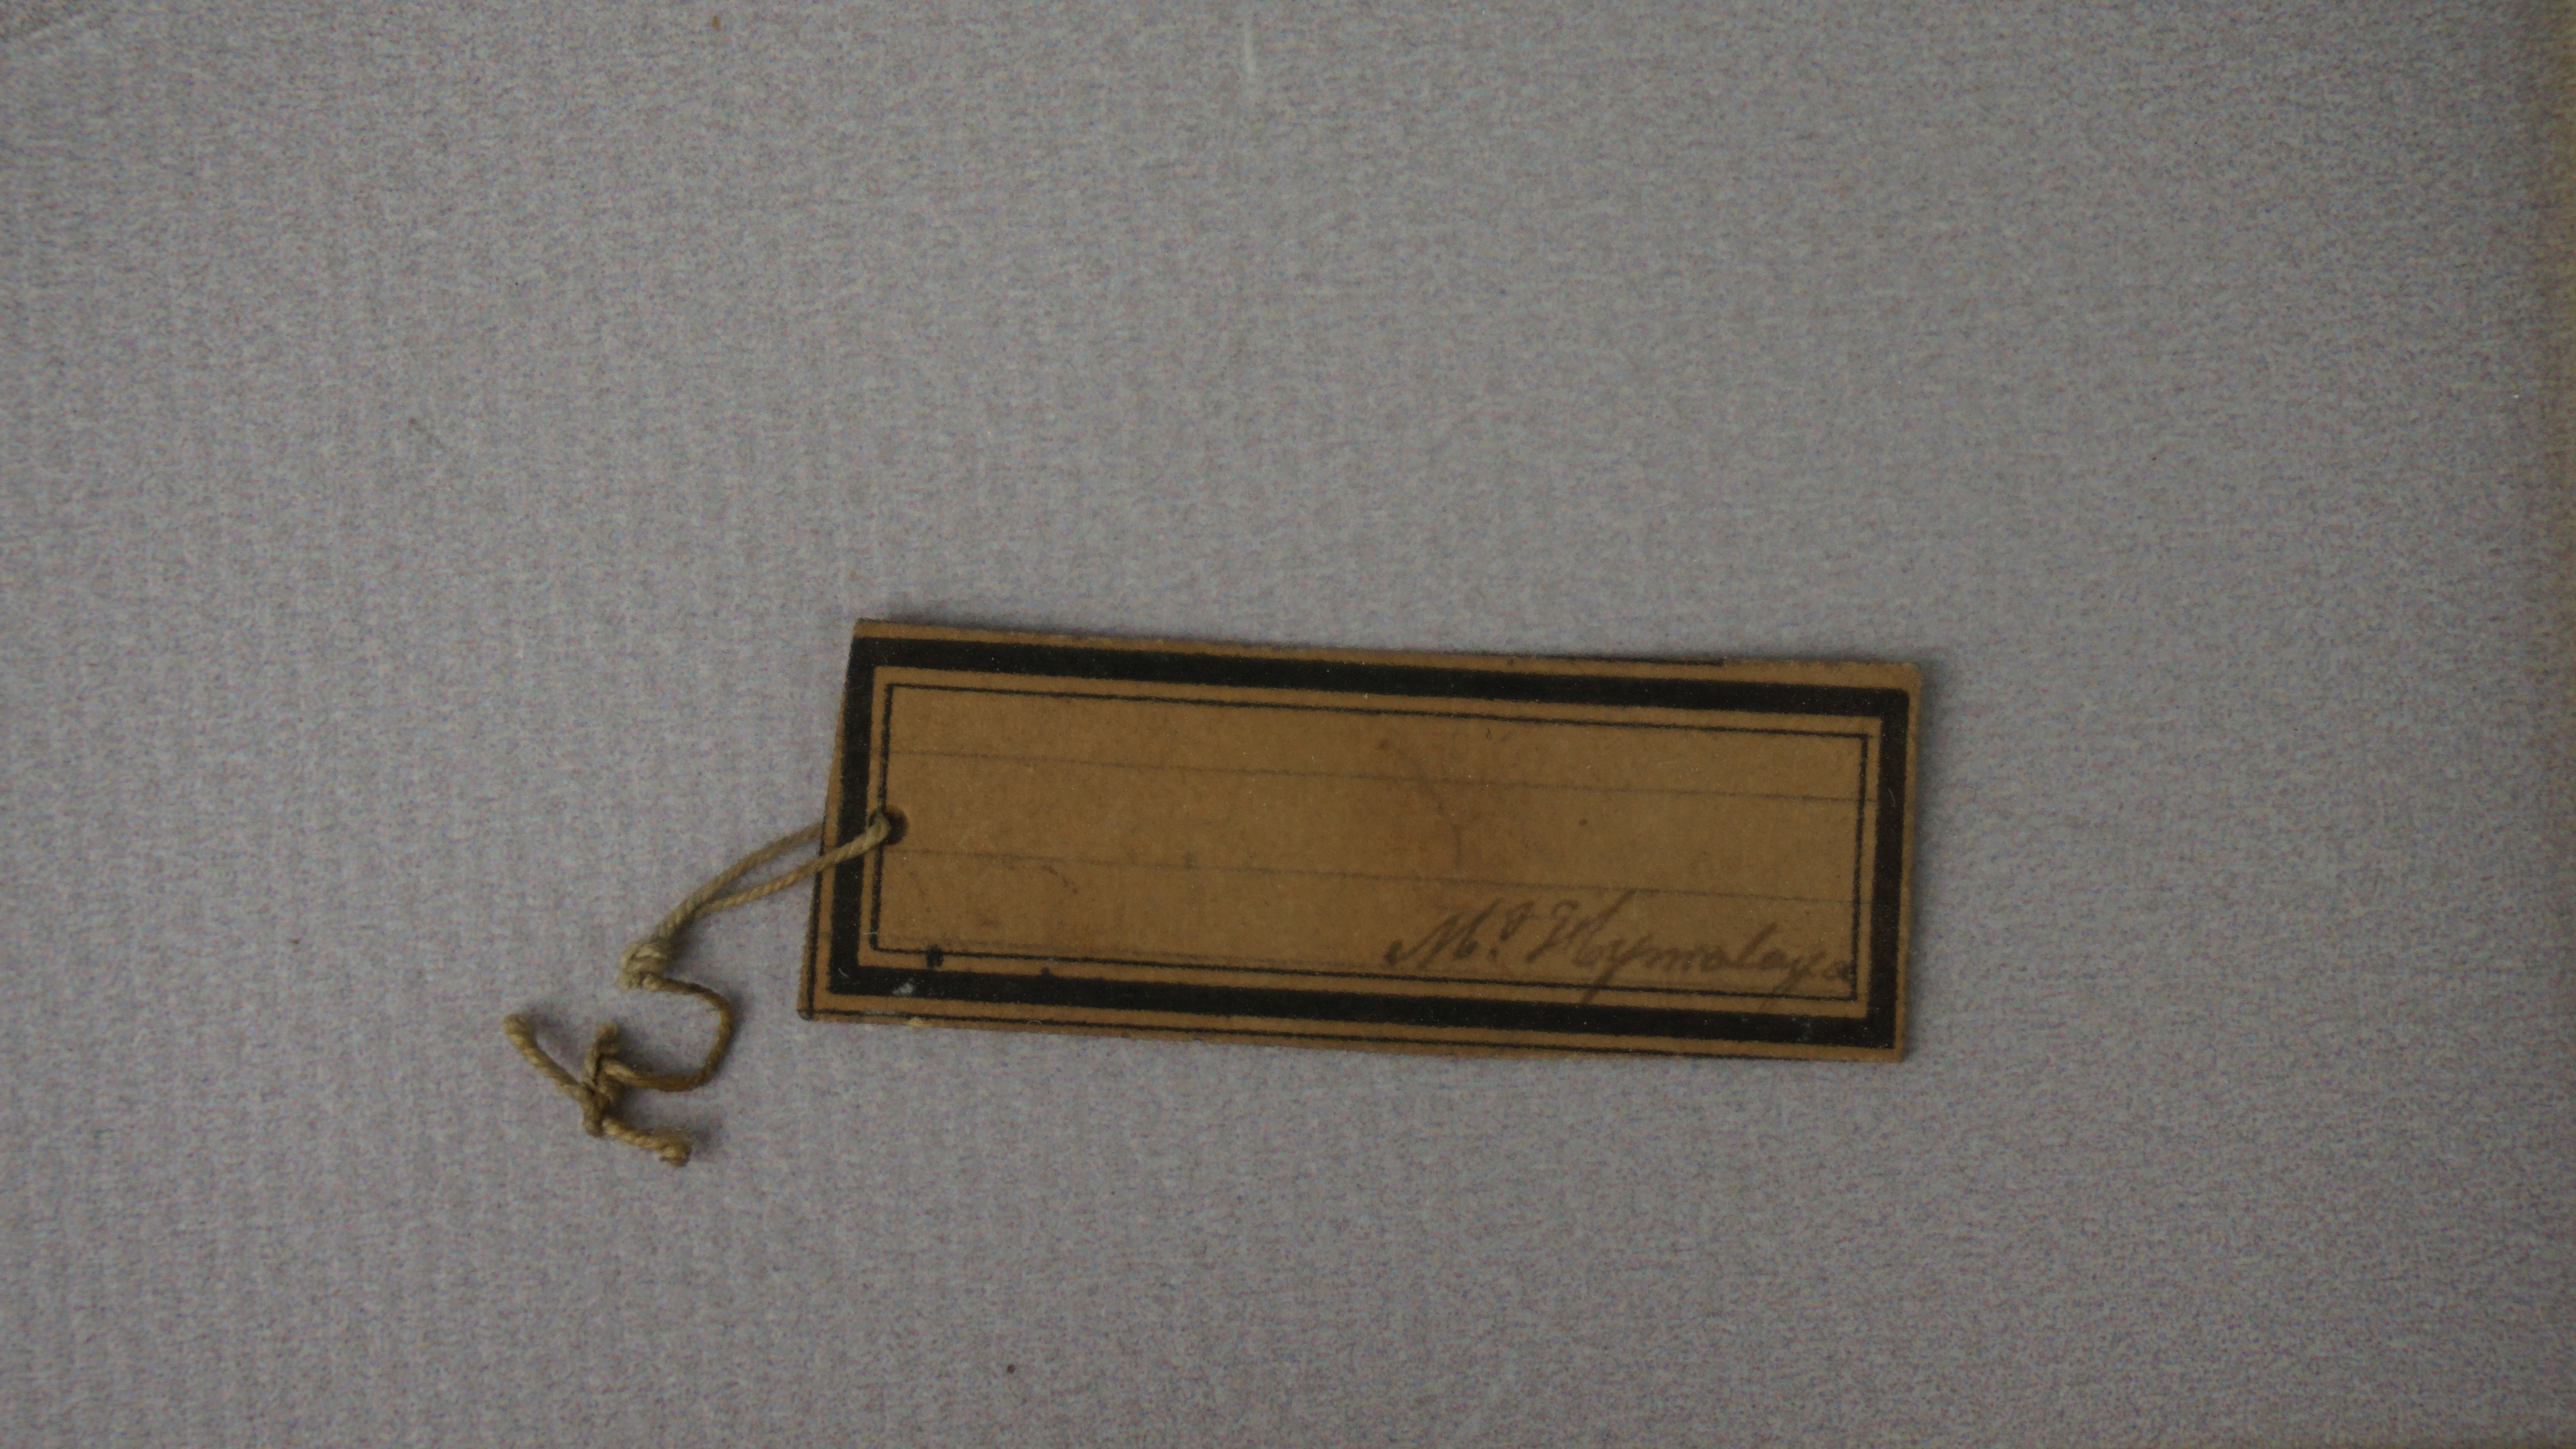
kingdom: Animalia
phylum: Chordata
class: Aves
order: Passeriformes
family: Leiothrichidae
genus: Trochalopteron
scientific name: Trochalopteron lineatum
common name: Streaked laughingthrush
